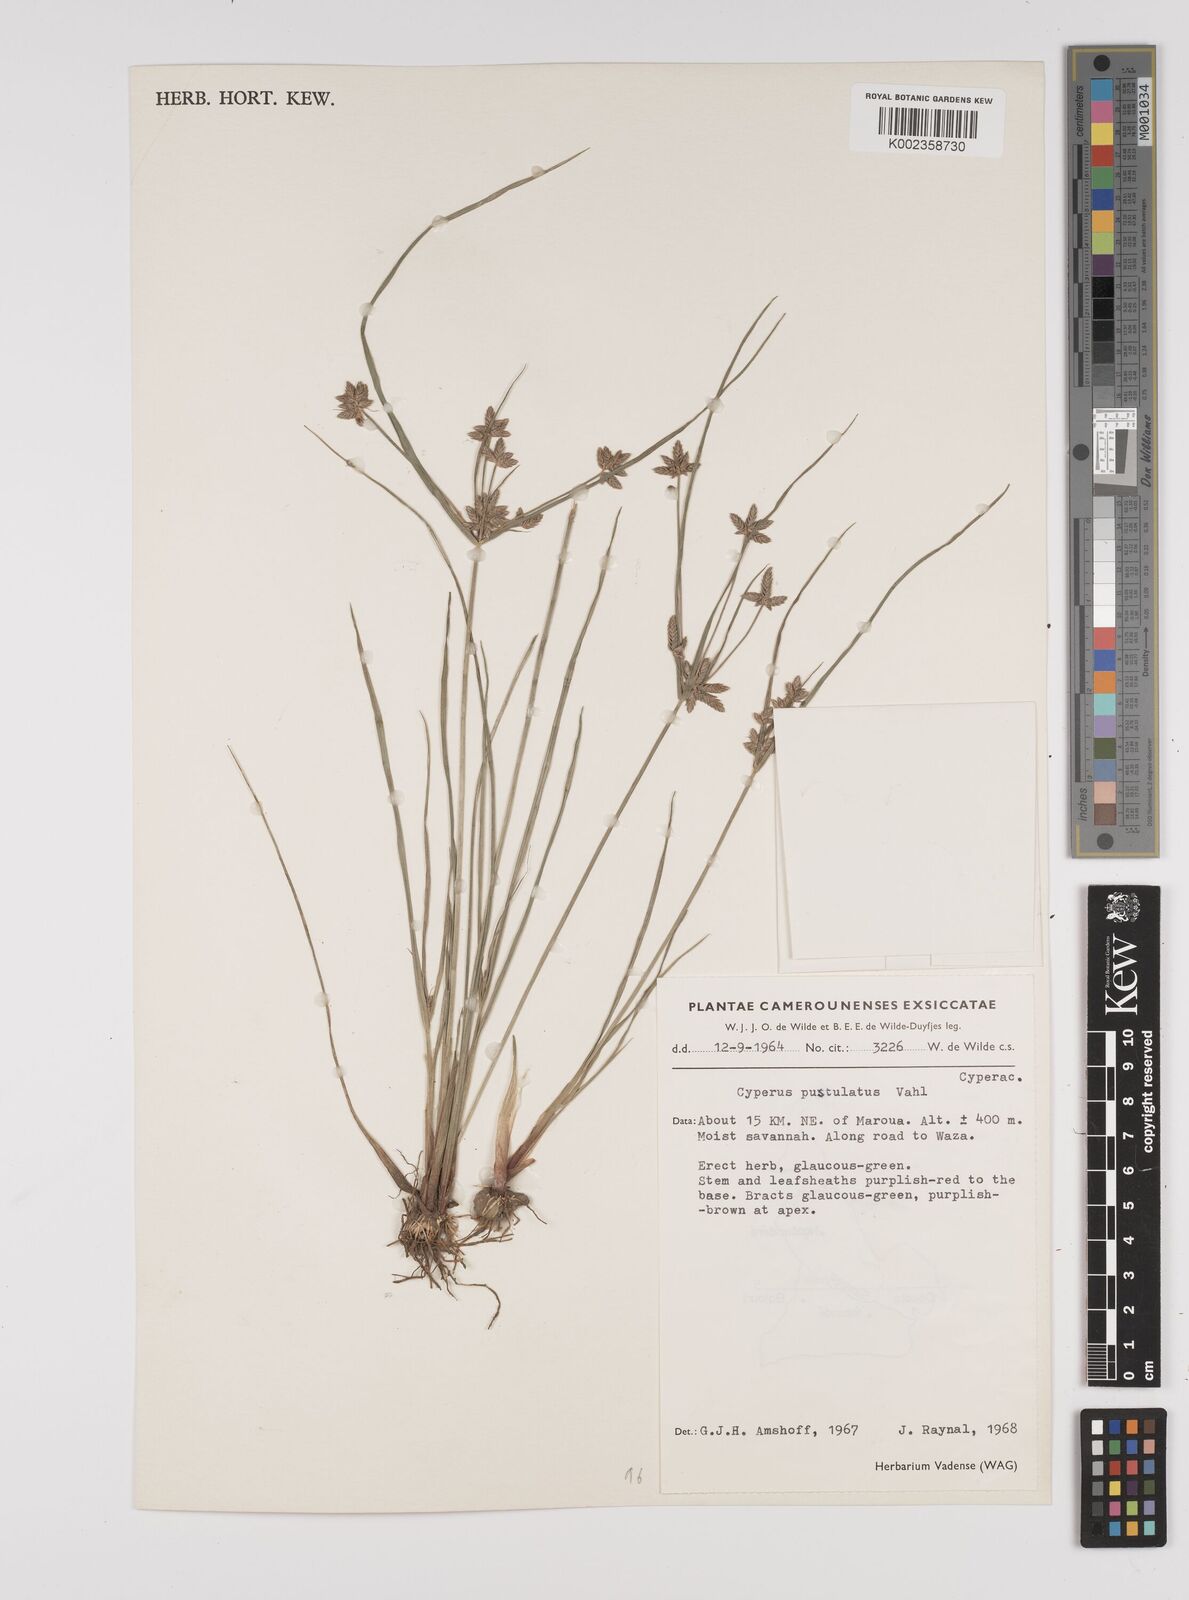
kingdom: Plantae
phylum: Tracheophyta
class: Liliopsida
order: Poales
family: Cyperaceae
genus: Cyperus
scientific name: Cyperus pustulatus
